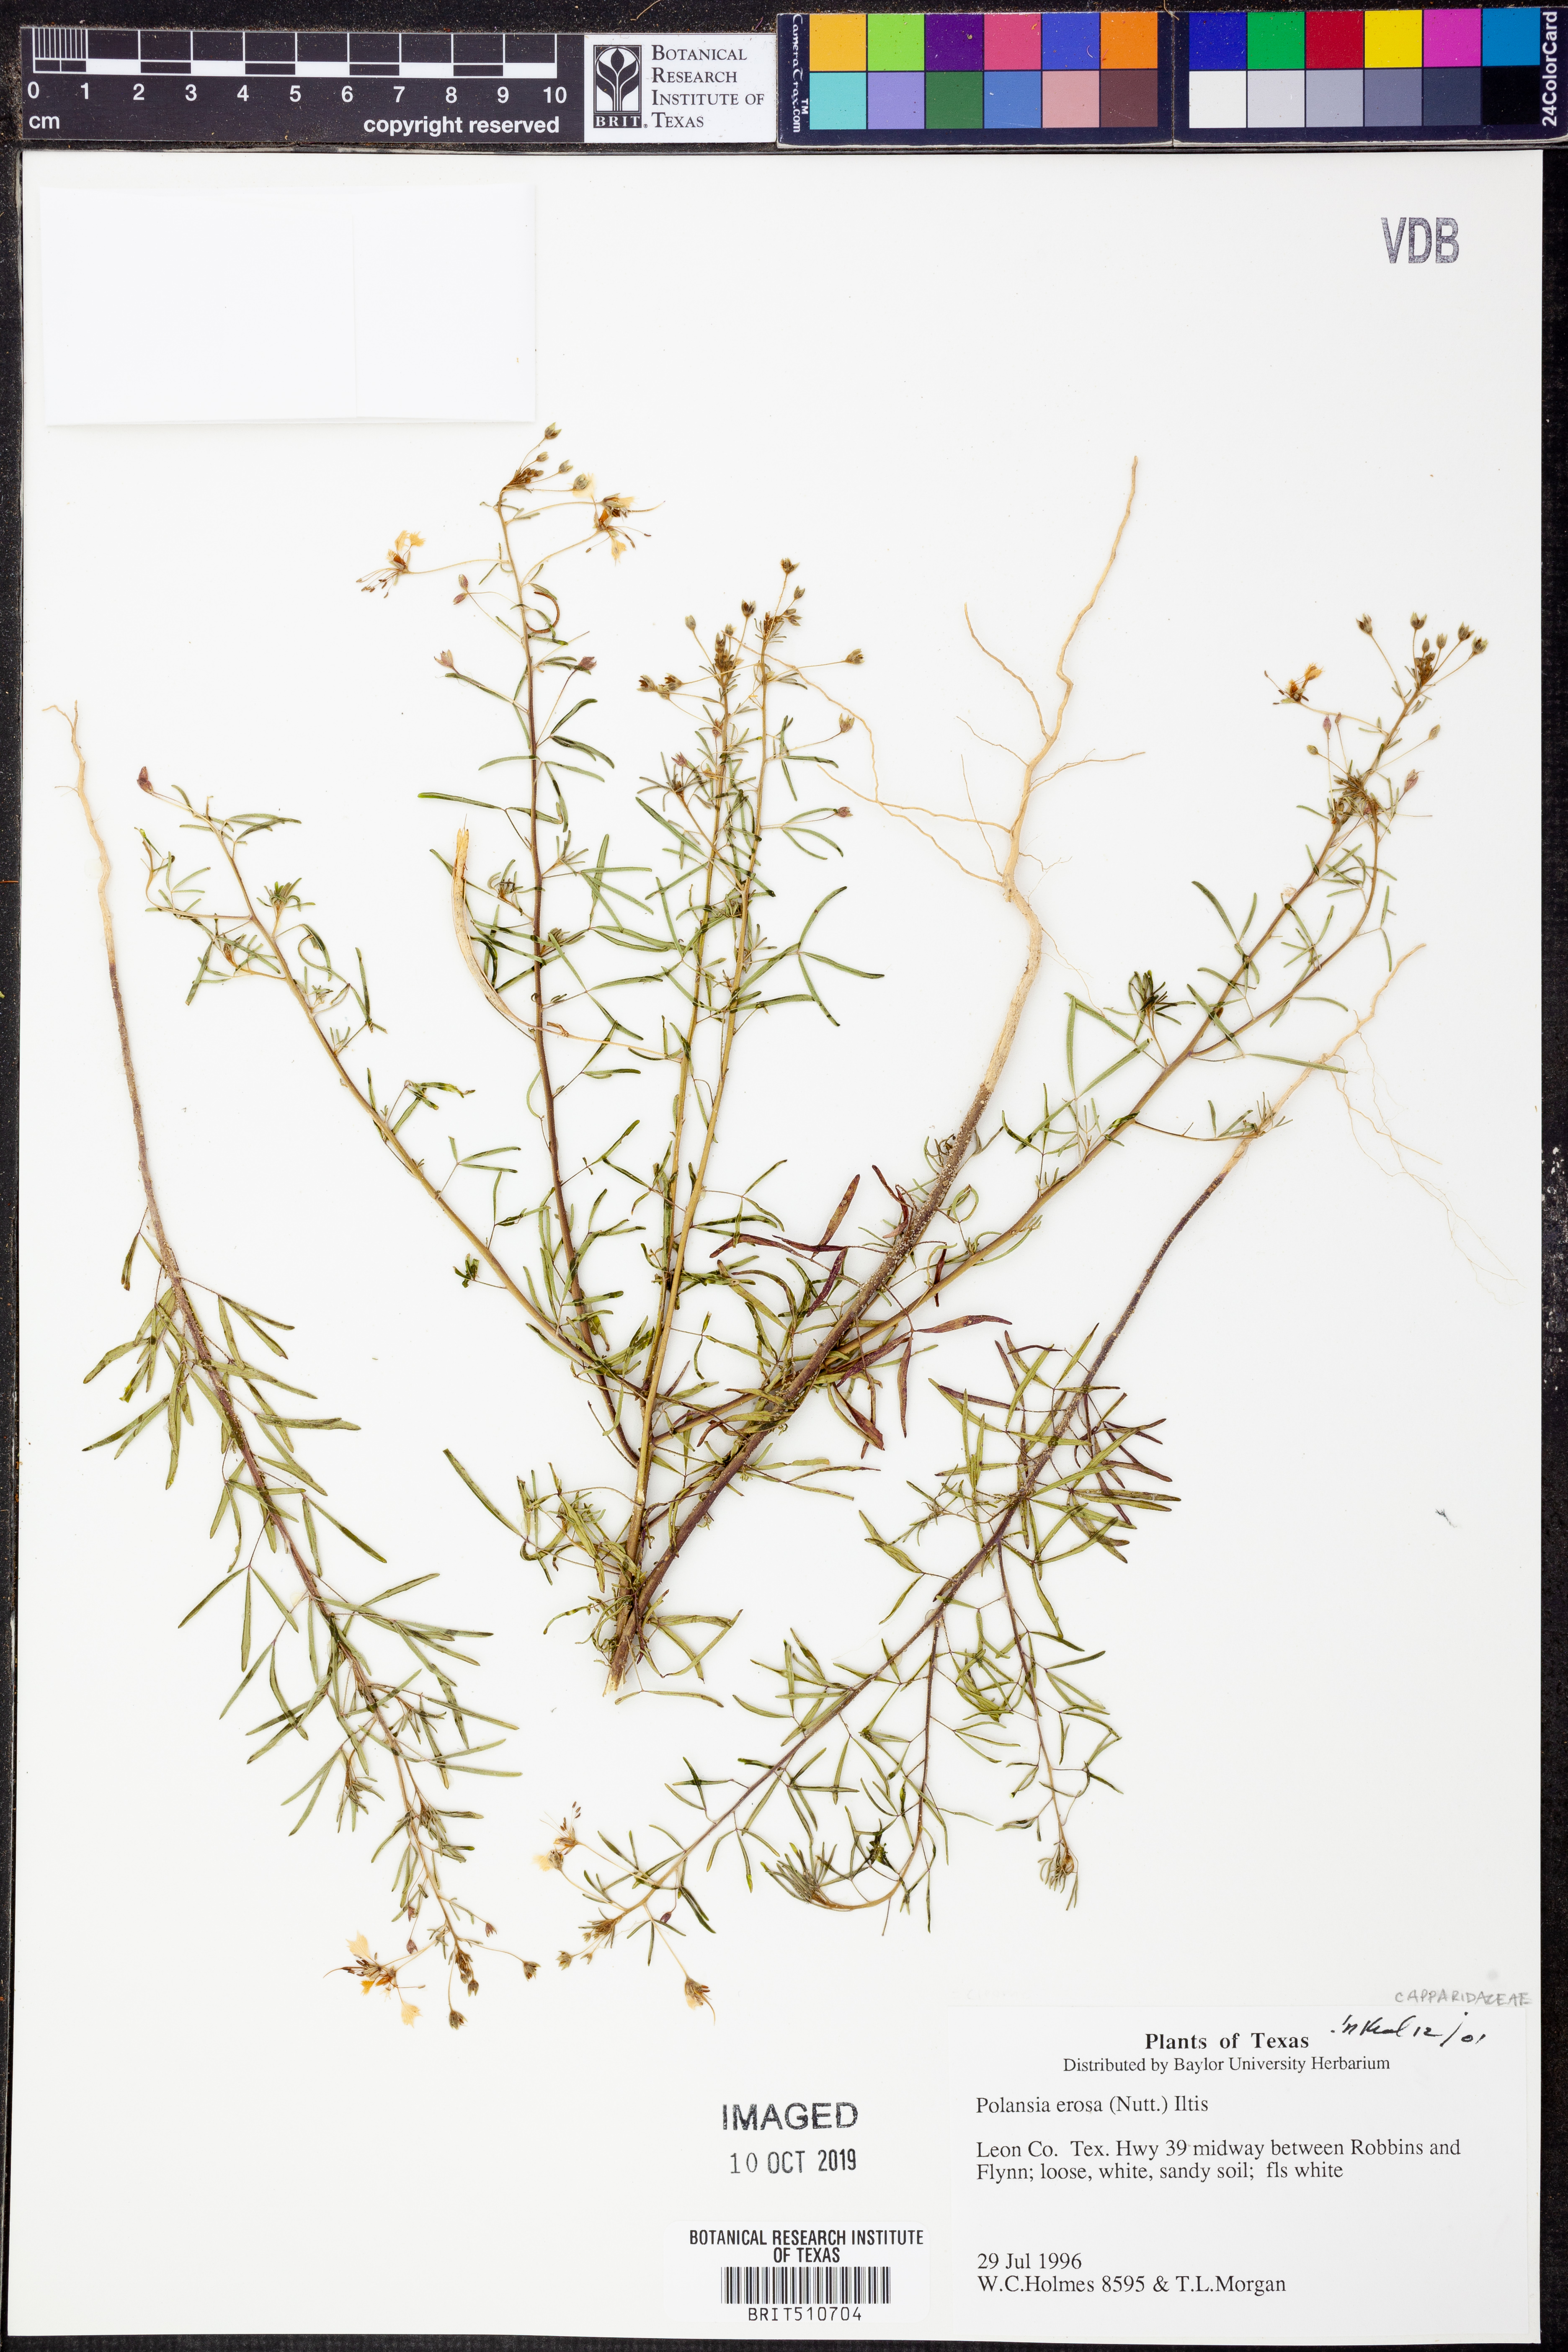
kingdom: Plantae
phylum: Tracheophyta
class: Magnoliopsida
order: Brassicales
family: Cleomaceae
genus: Polanisia
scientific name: Polanisia erosa
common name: Large clammyweed
